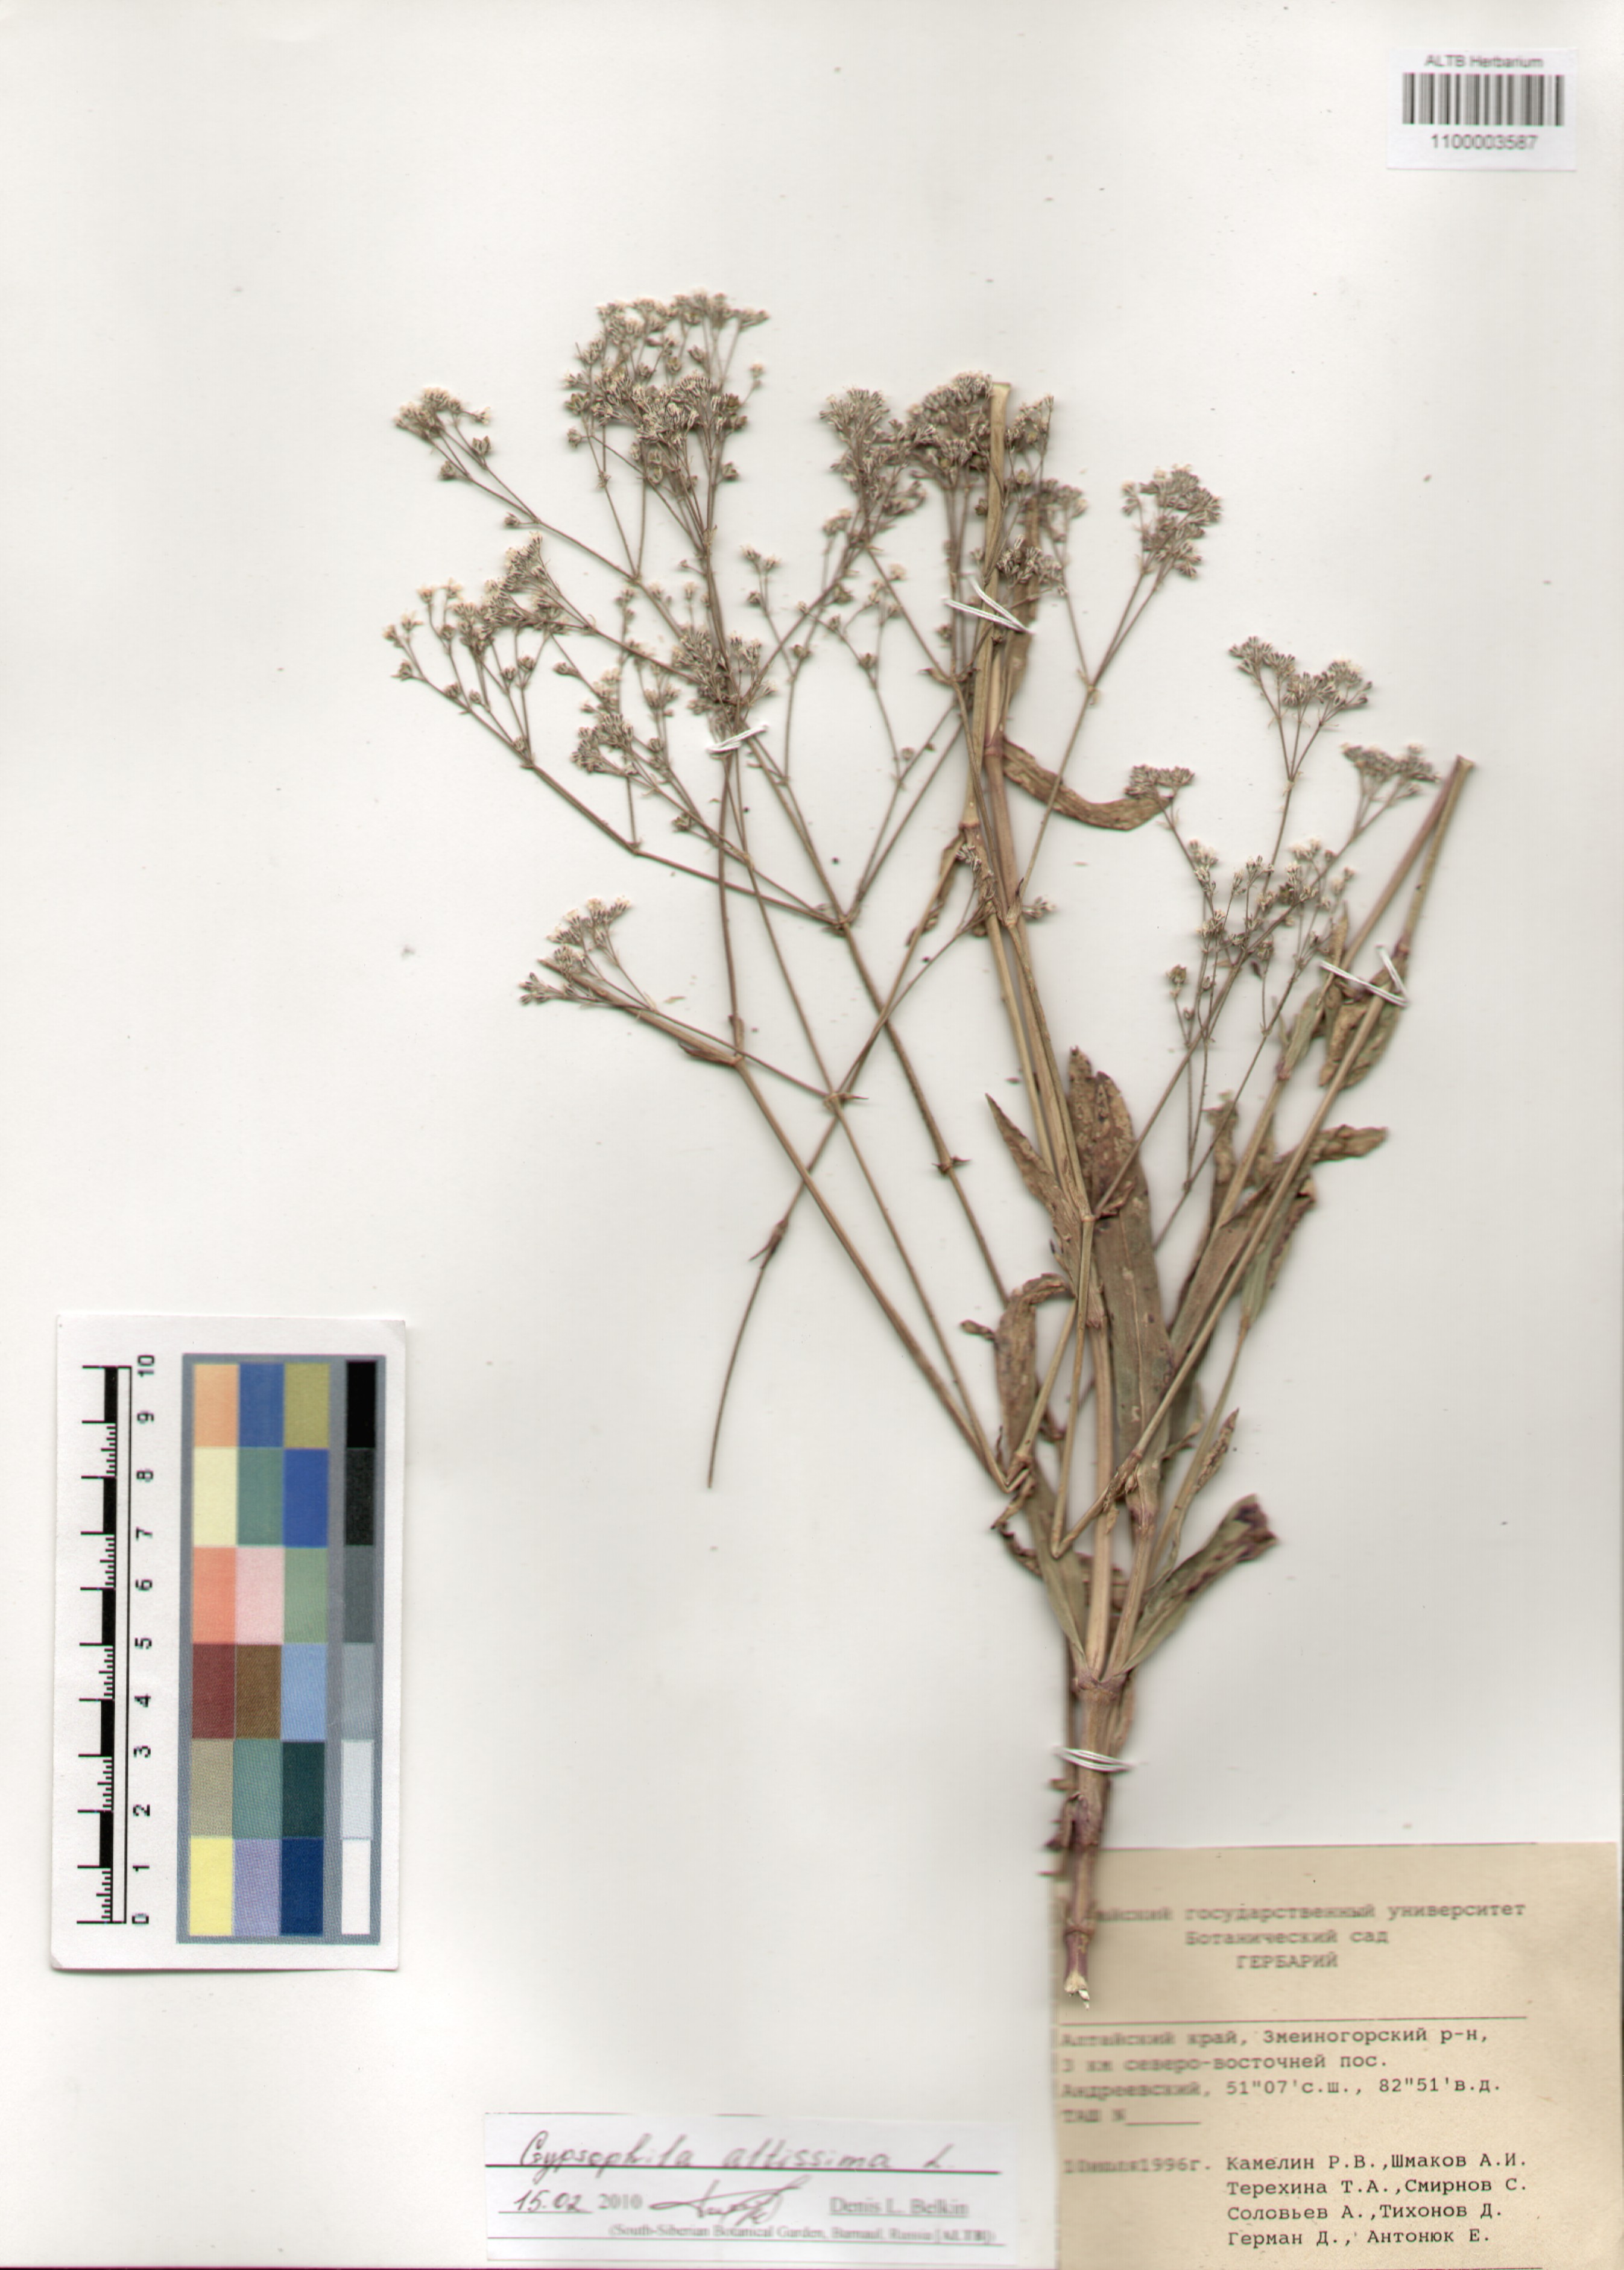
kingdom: Plantae
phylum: Tracheophyta
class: Magnoliopsida
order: Caryophyllales
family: Caryophyllaceae
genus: Gypsophila
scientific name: Gypsophila altissima
